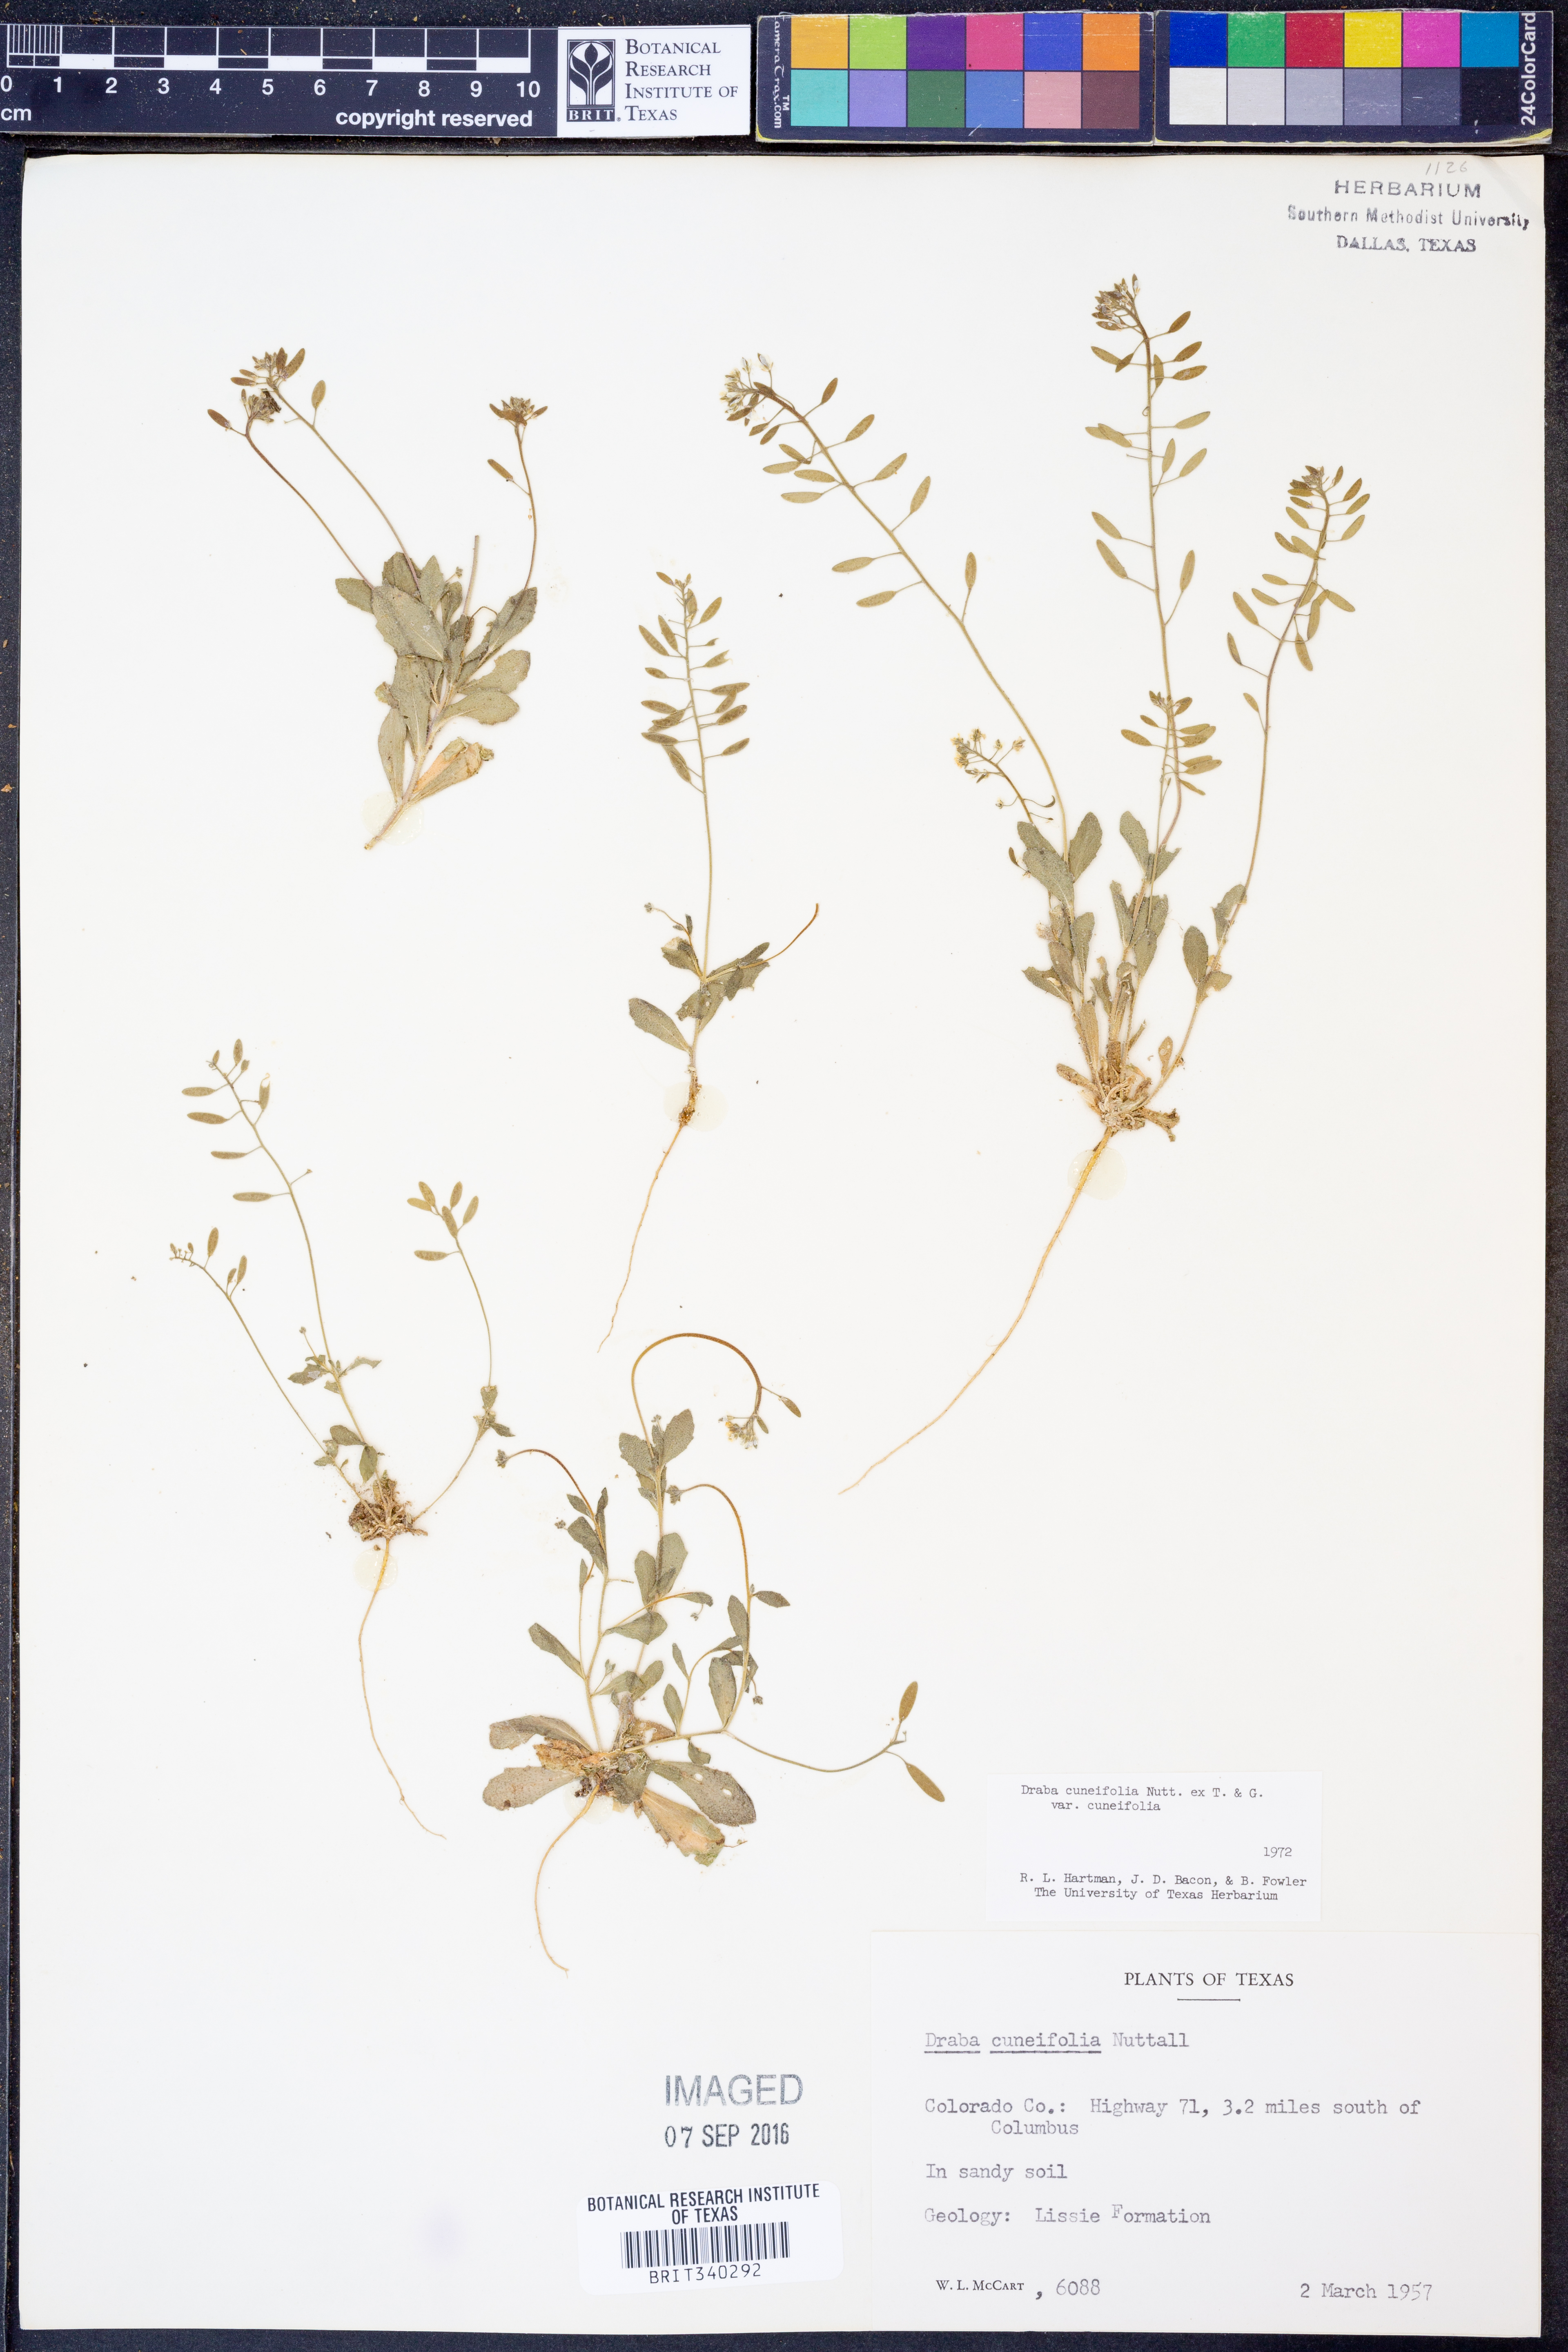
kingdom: Plantae
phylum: Tracheophyta
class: Magnoliopsida
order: Brassicales
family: Brassicaceae
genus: Tomostima
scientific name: Tomostima cuneifolia
